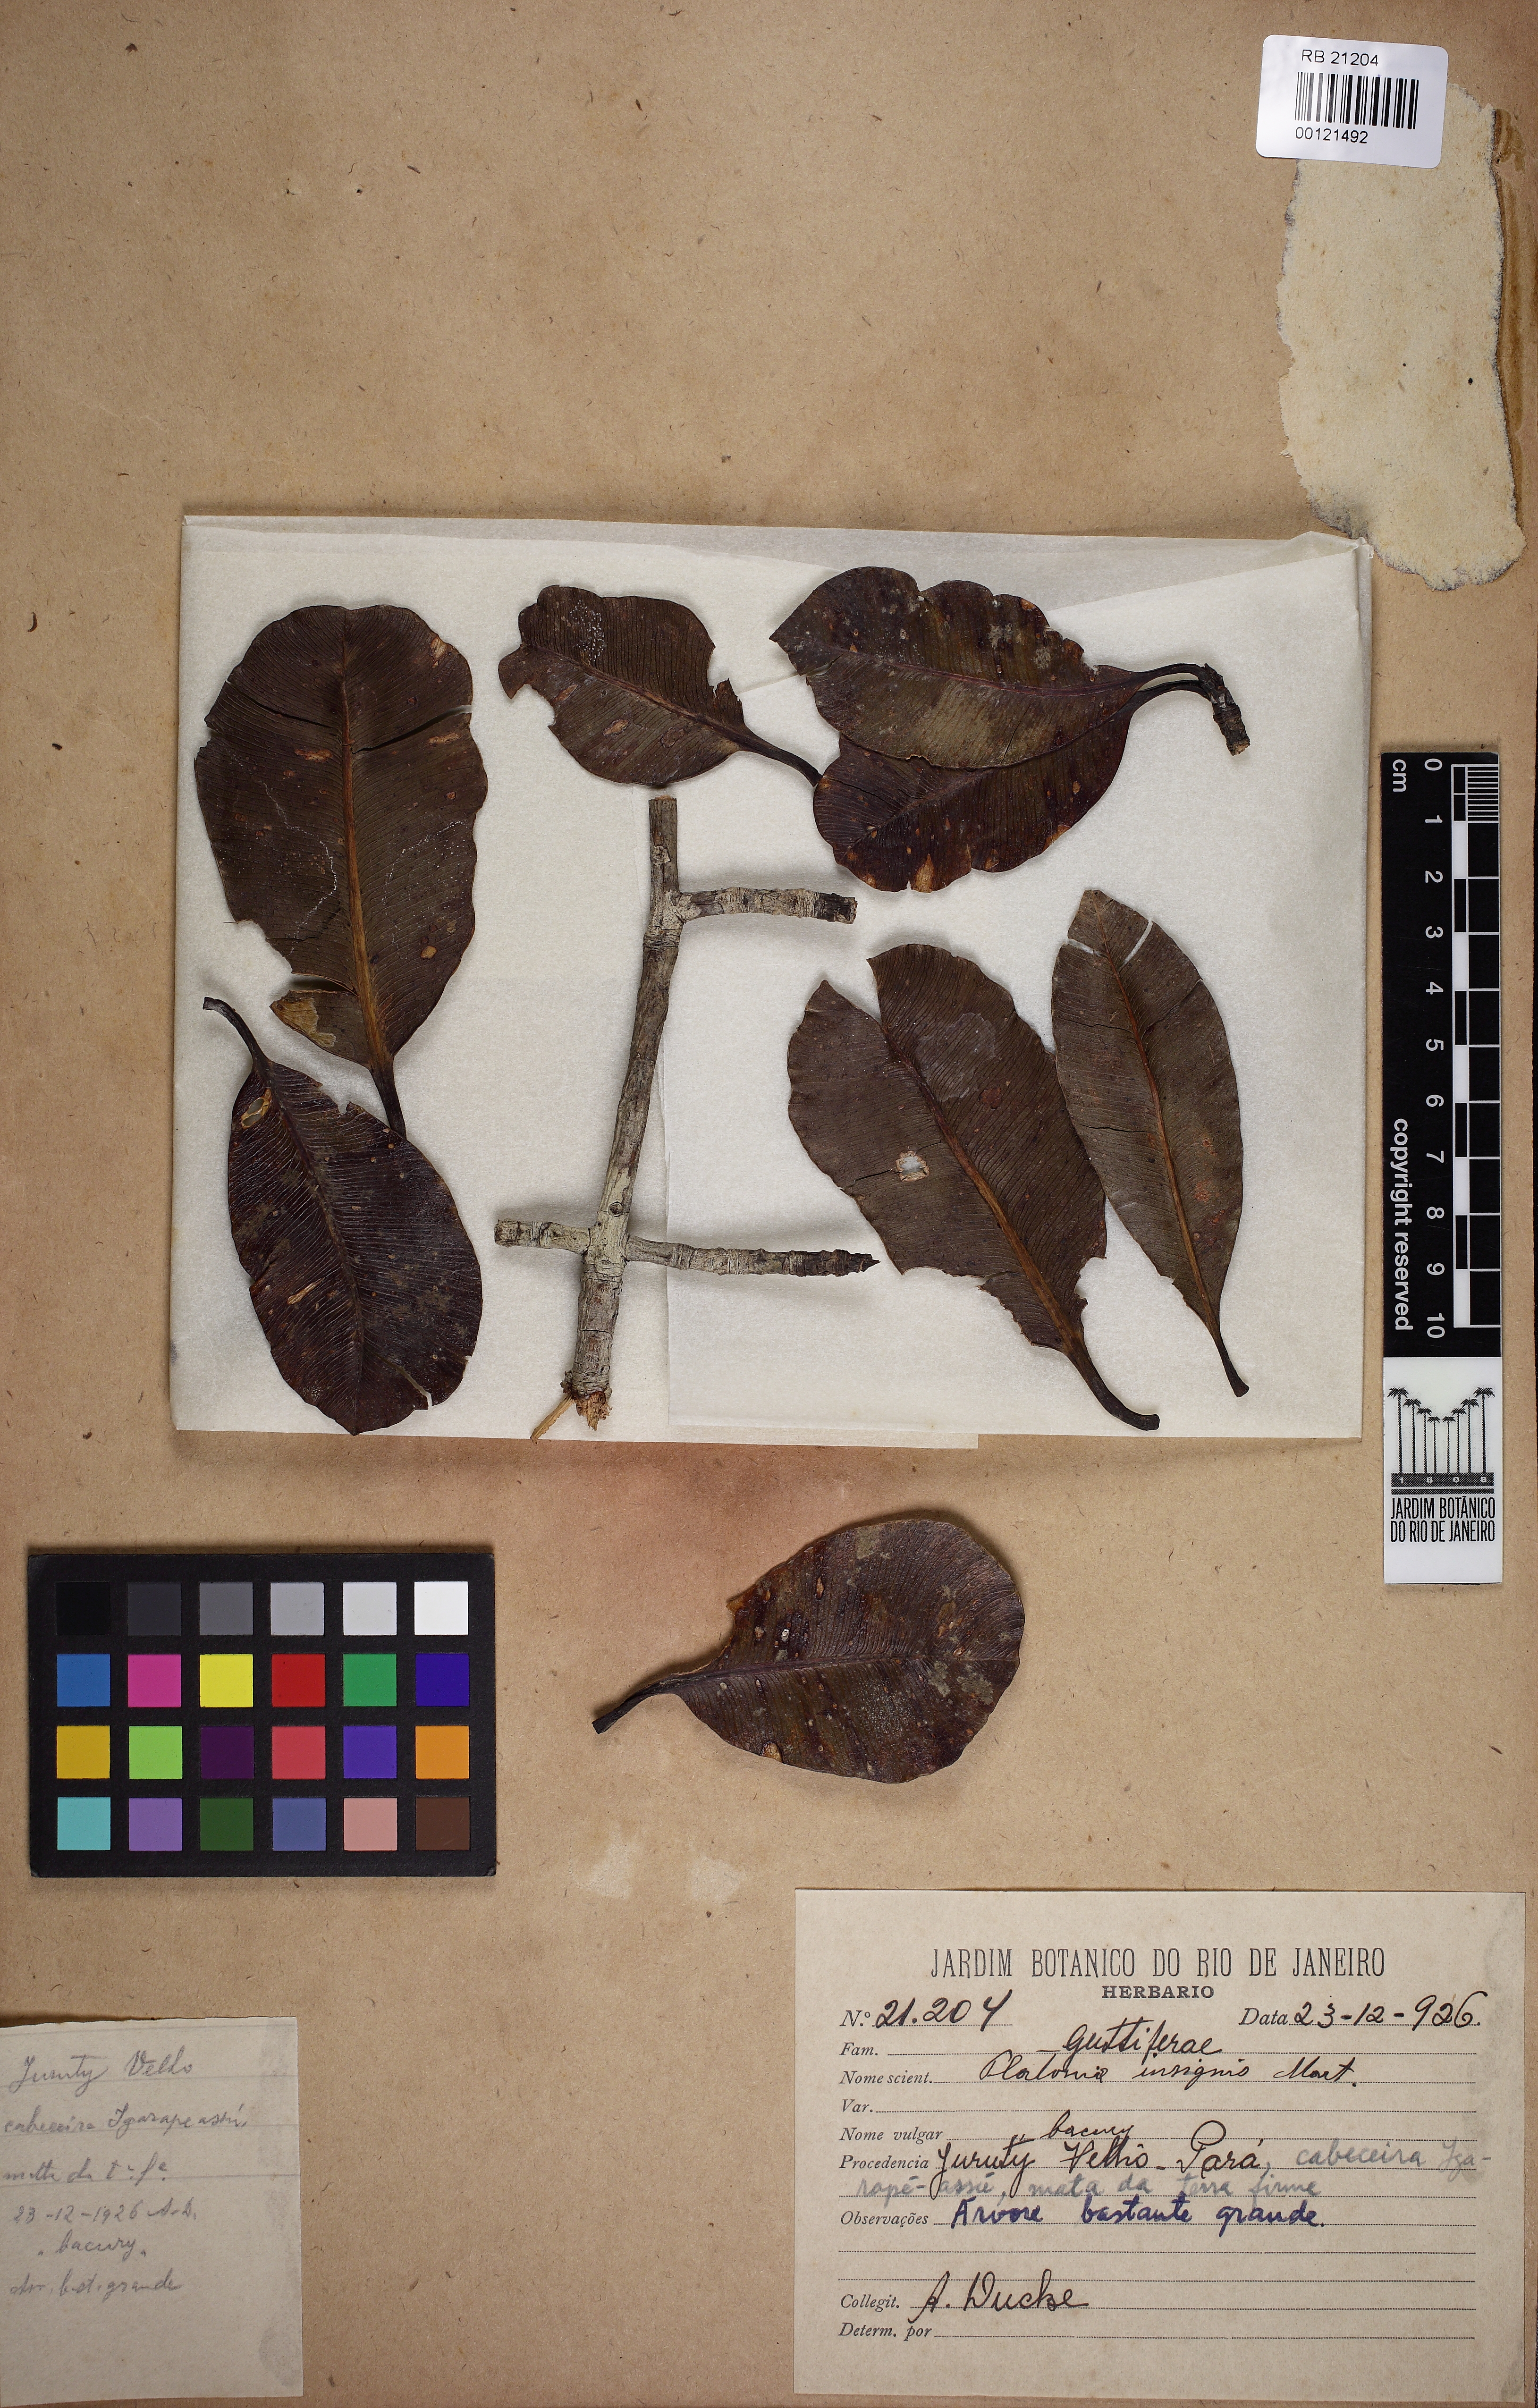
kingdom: Plantae
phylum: Tracheophyta
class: Magnoliopsida
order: Malpighiales
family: Clusiaceae
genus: Platonia
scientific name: Platonia insignis
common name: Bacury
